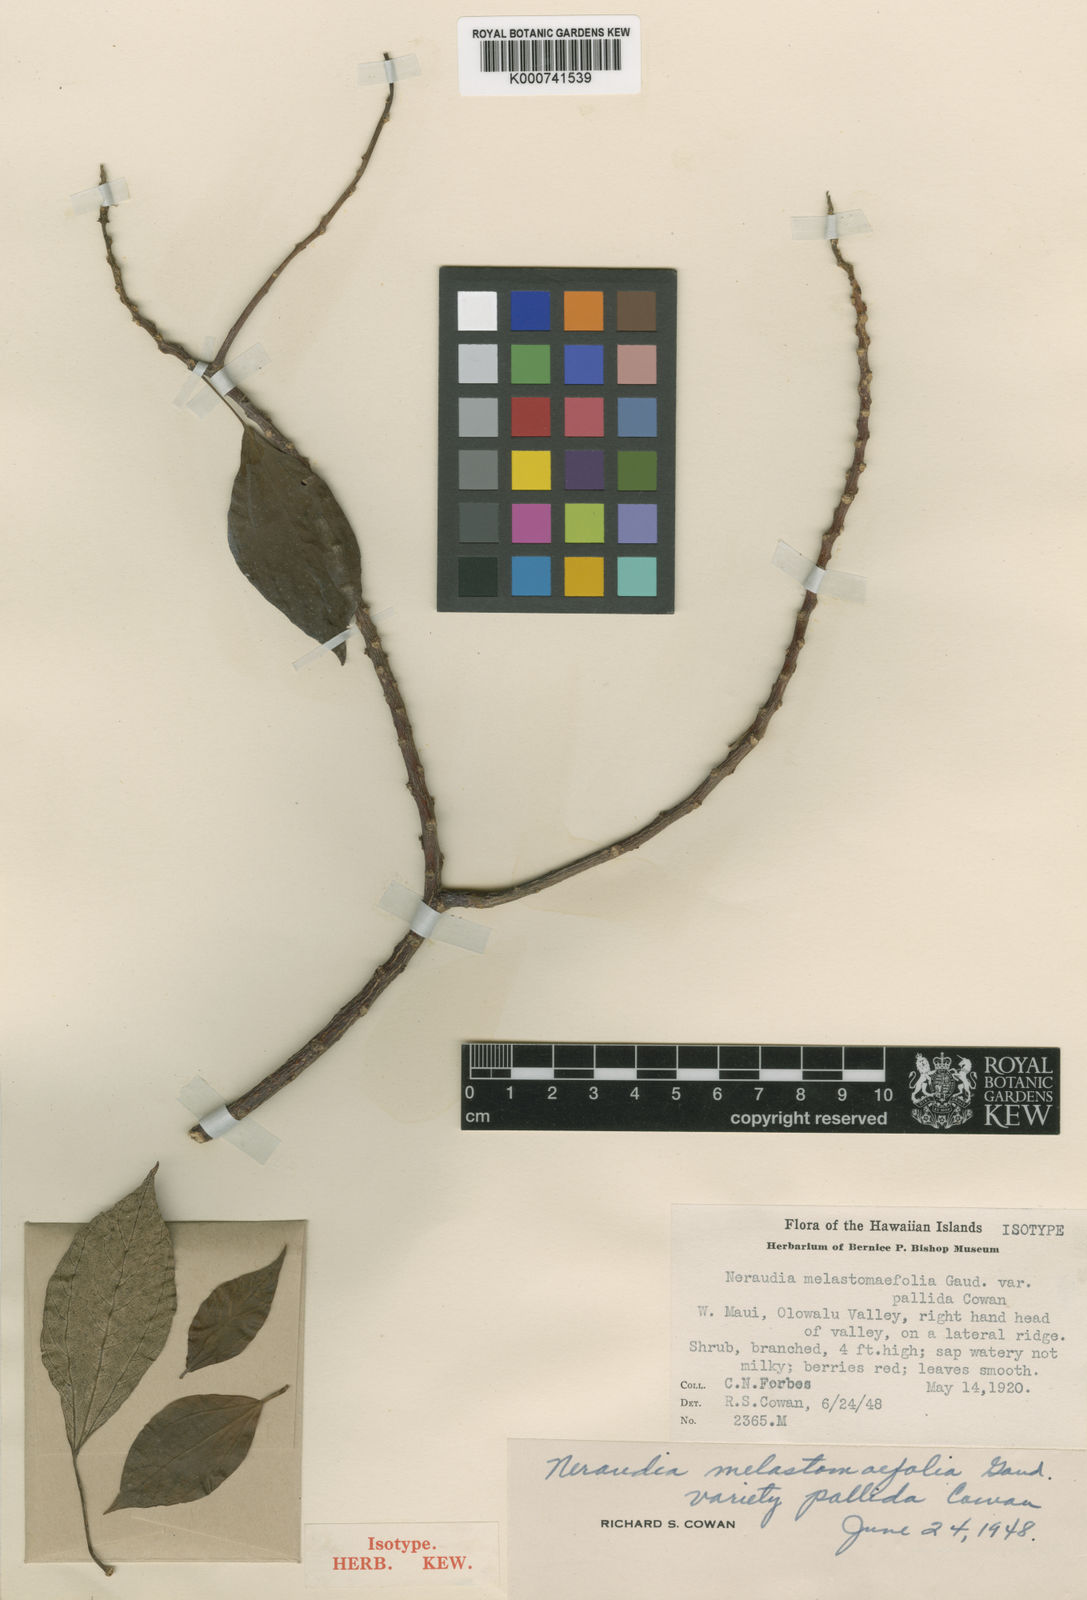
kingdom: Plantae
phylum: Tracheophyta
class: Magnoliopsida
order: Rosales
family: Urticaceae
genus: Neraudia
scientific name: Neraudia melastomifolia
